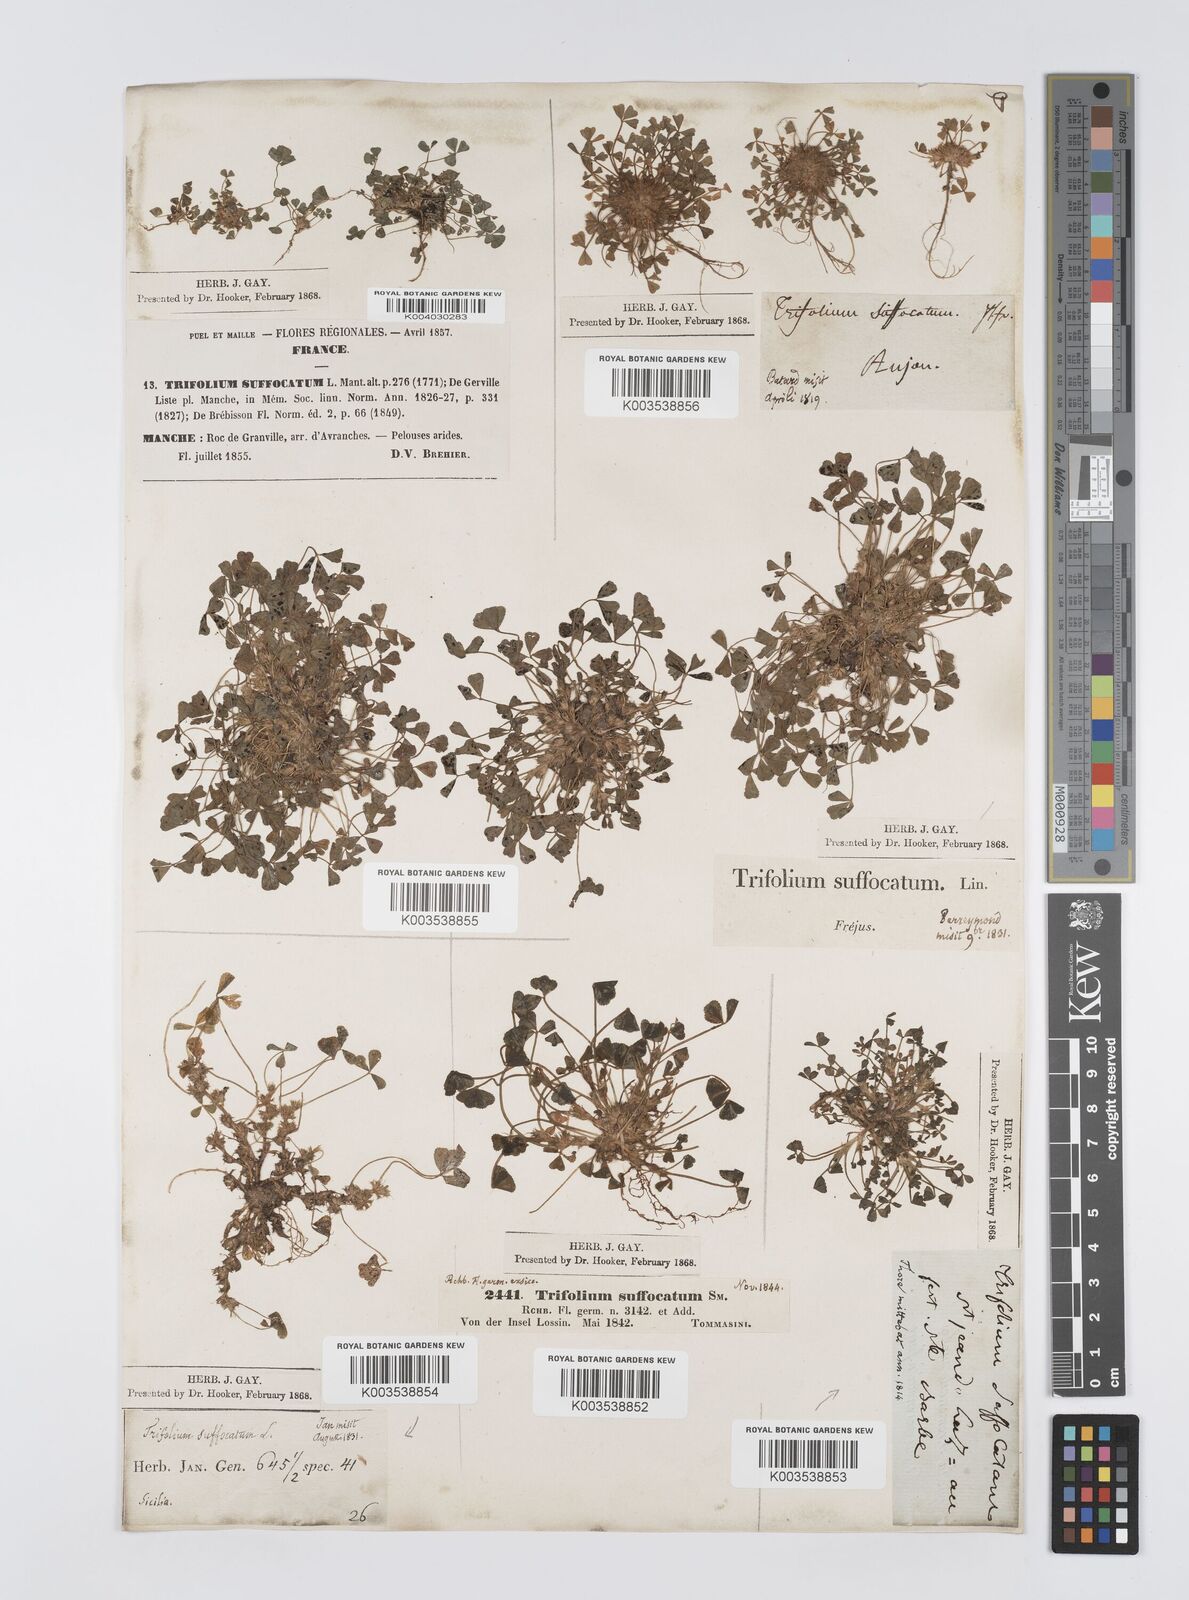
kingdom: Plantae
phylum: Tracheophyta
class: Magnoliopsida
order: Fabales
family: Fabaceae
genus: Trifolium
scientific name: Trifolium suffocatum
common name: Suffocated clover
